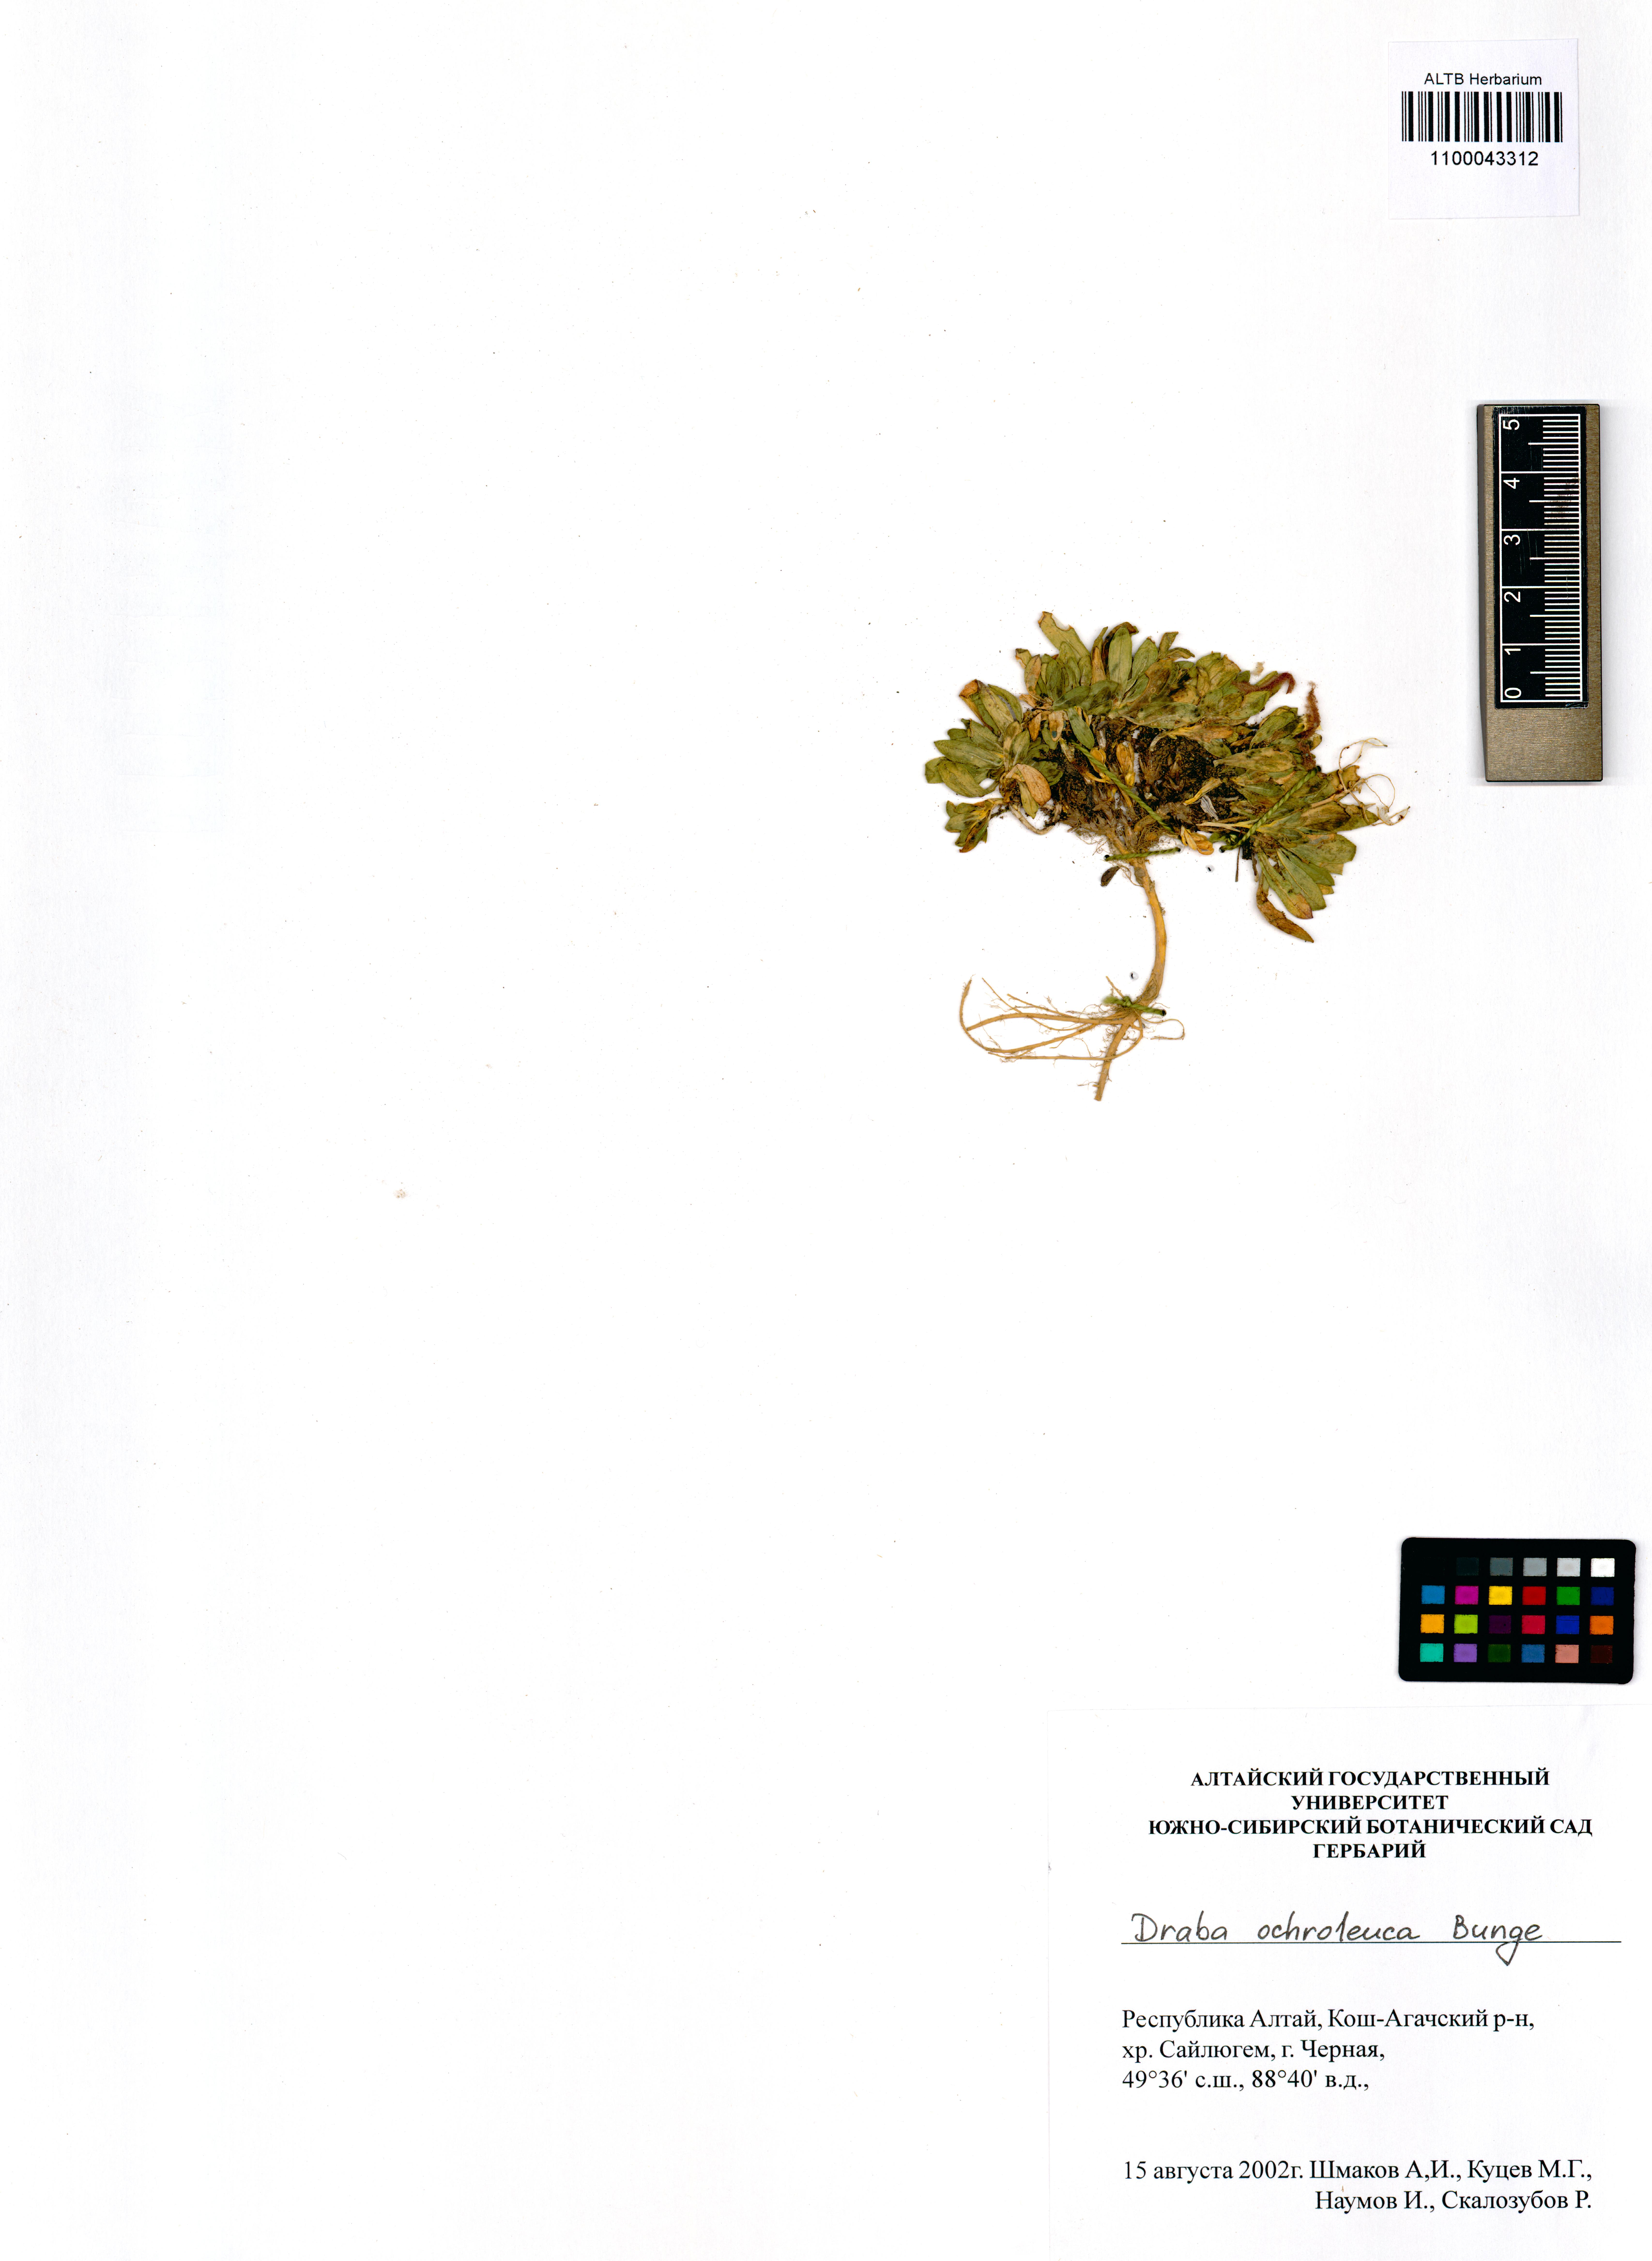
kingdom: Plantae
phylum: Tracheophyta
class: Magnoliopsida
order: Brassicales
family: Brassicaceae
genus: Draba
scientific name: Draba ochroleuca
